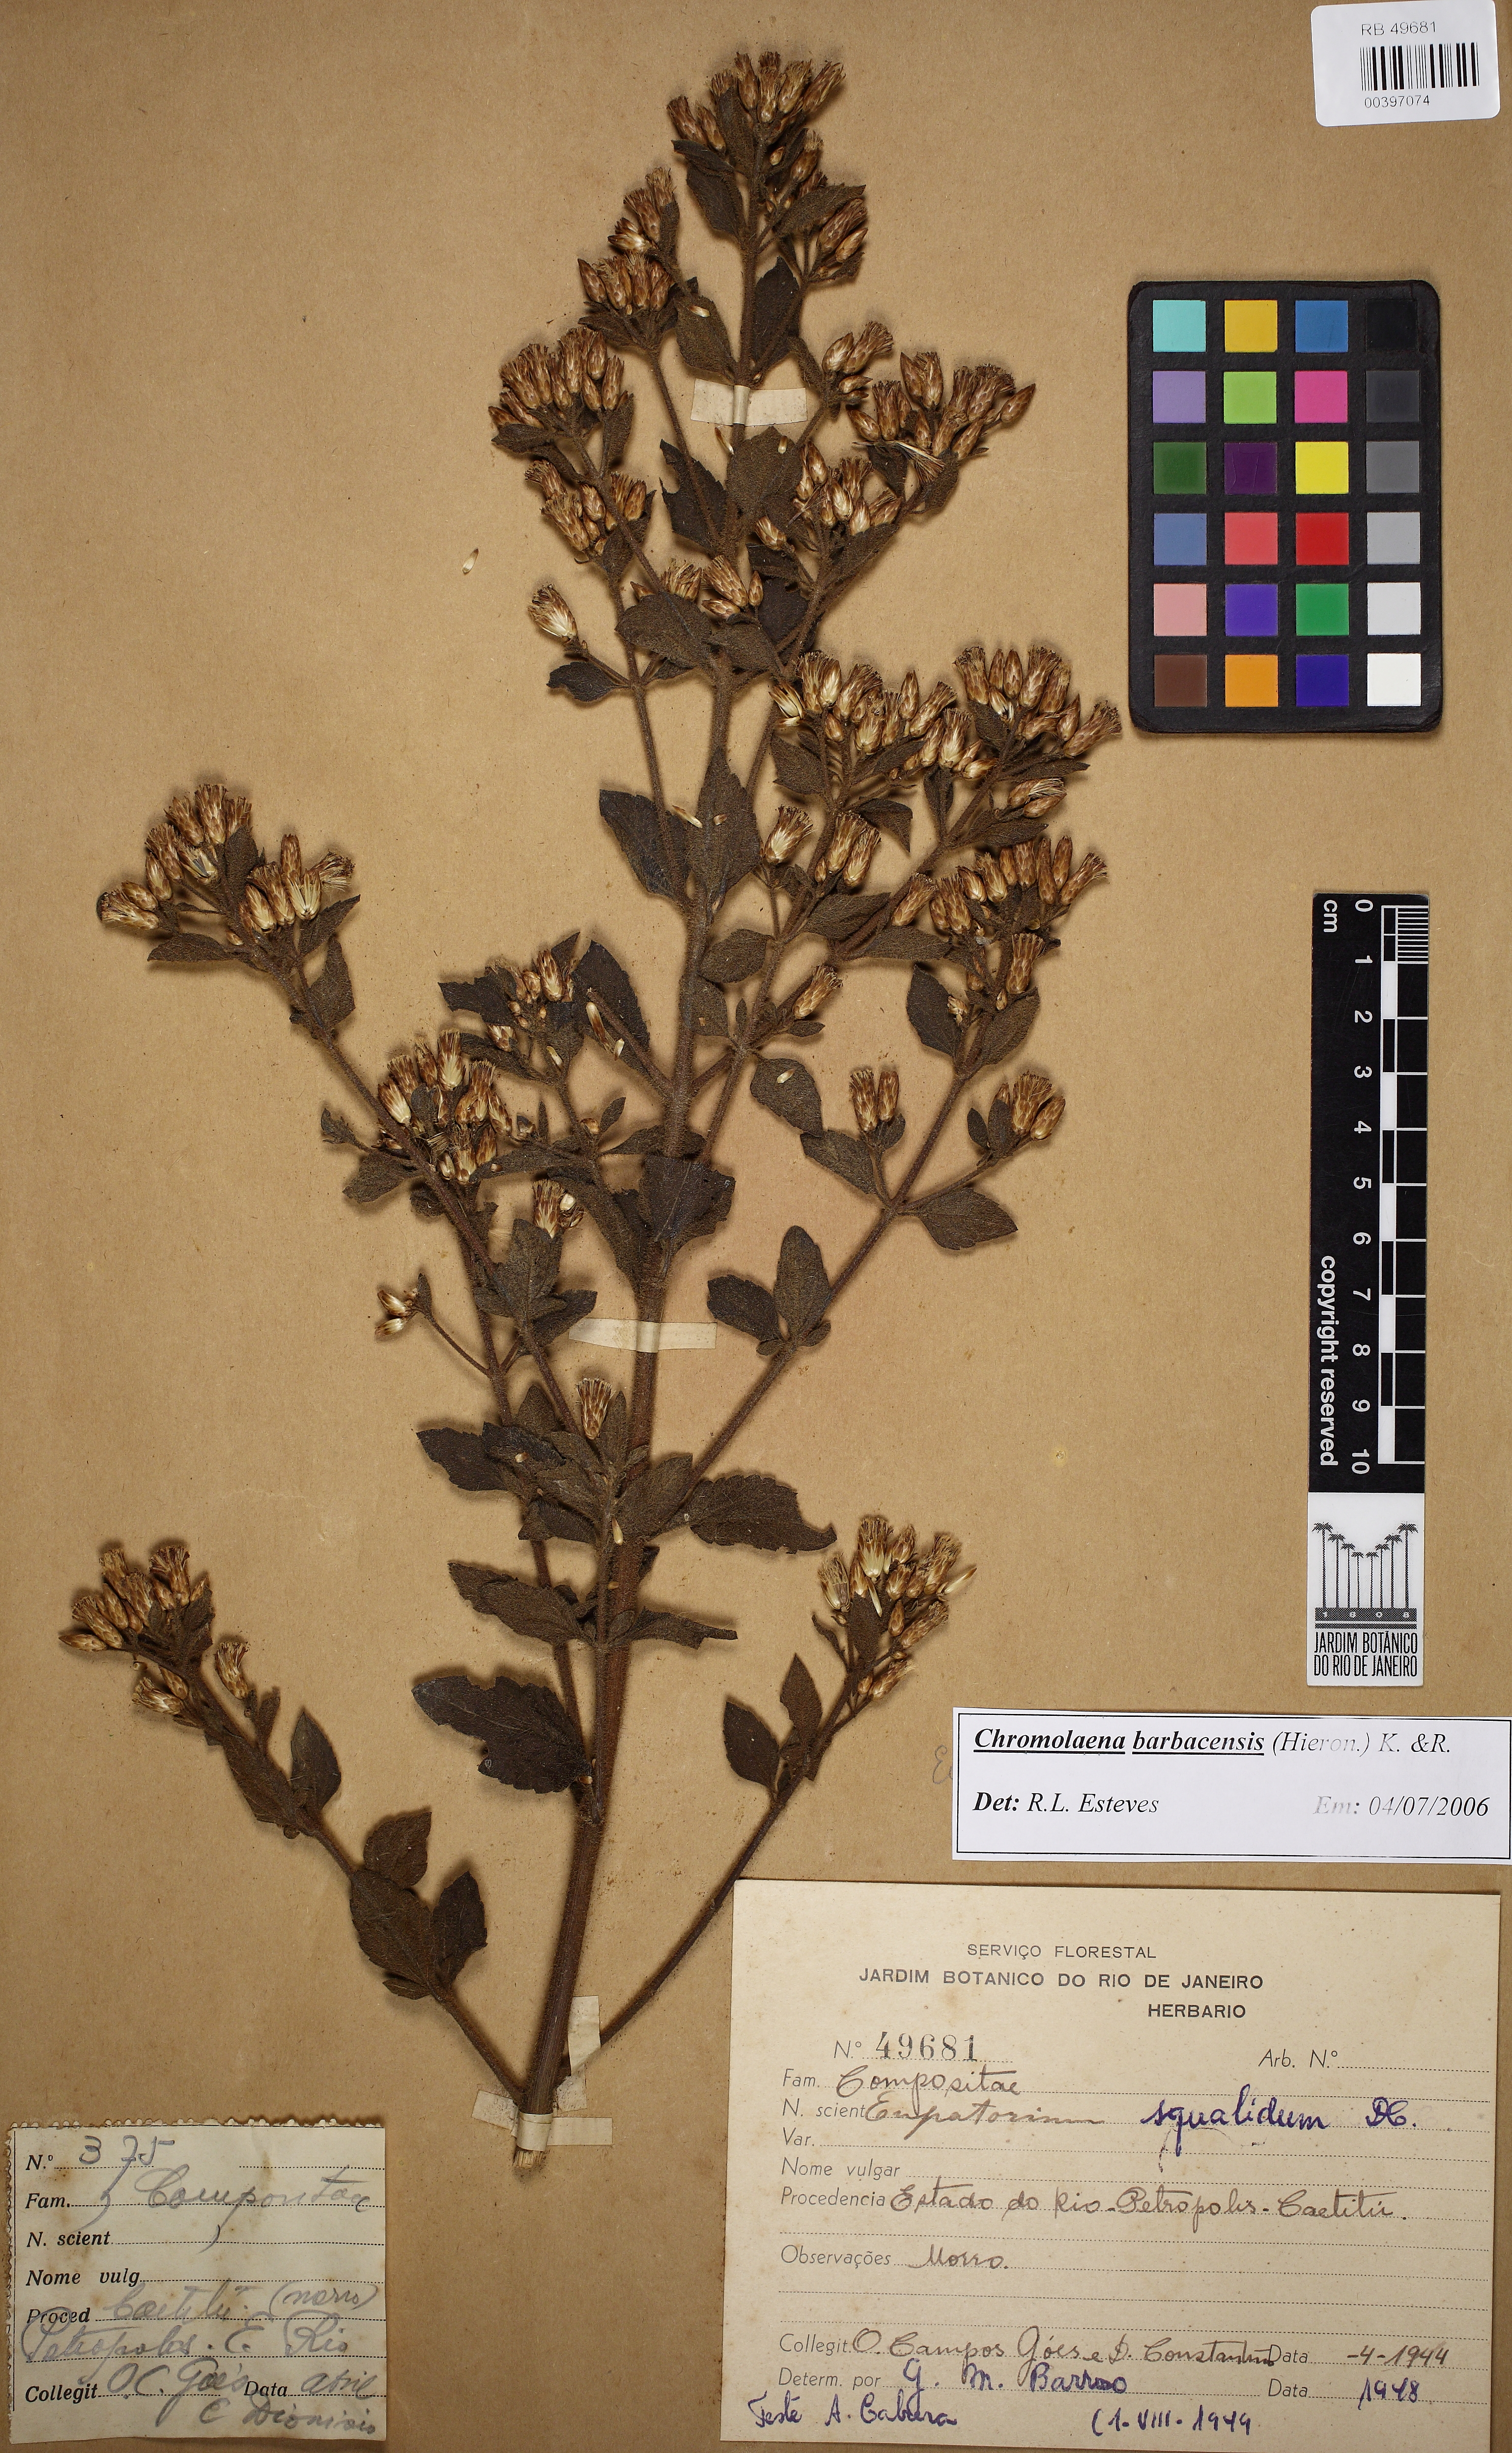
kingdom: Plantae
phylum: Tracheophyta
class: Magnoliopsida
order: Asterales
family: Asteraceae
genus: Chromolaena
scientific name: Chromolaena barbacensis
